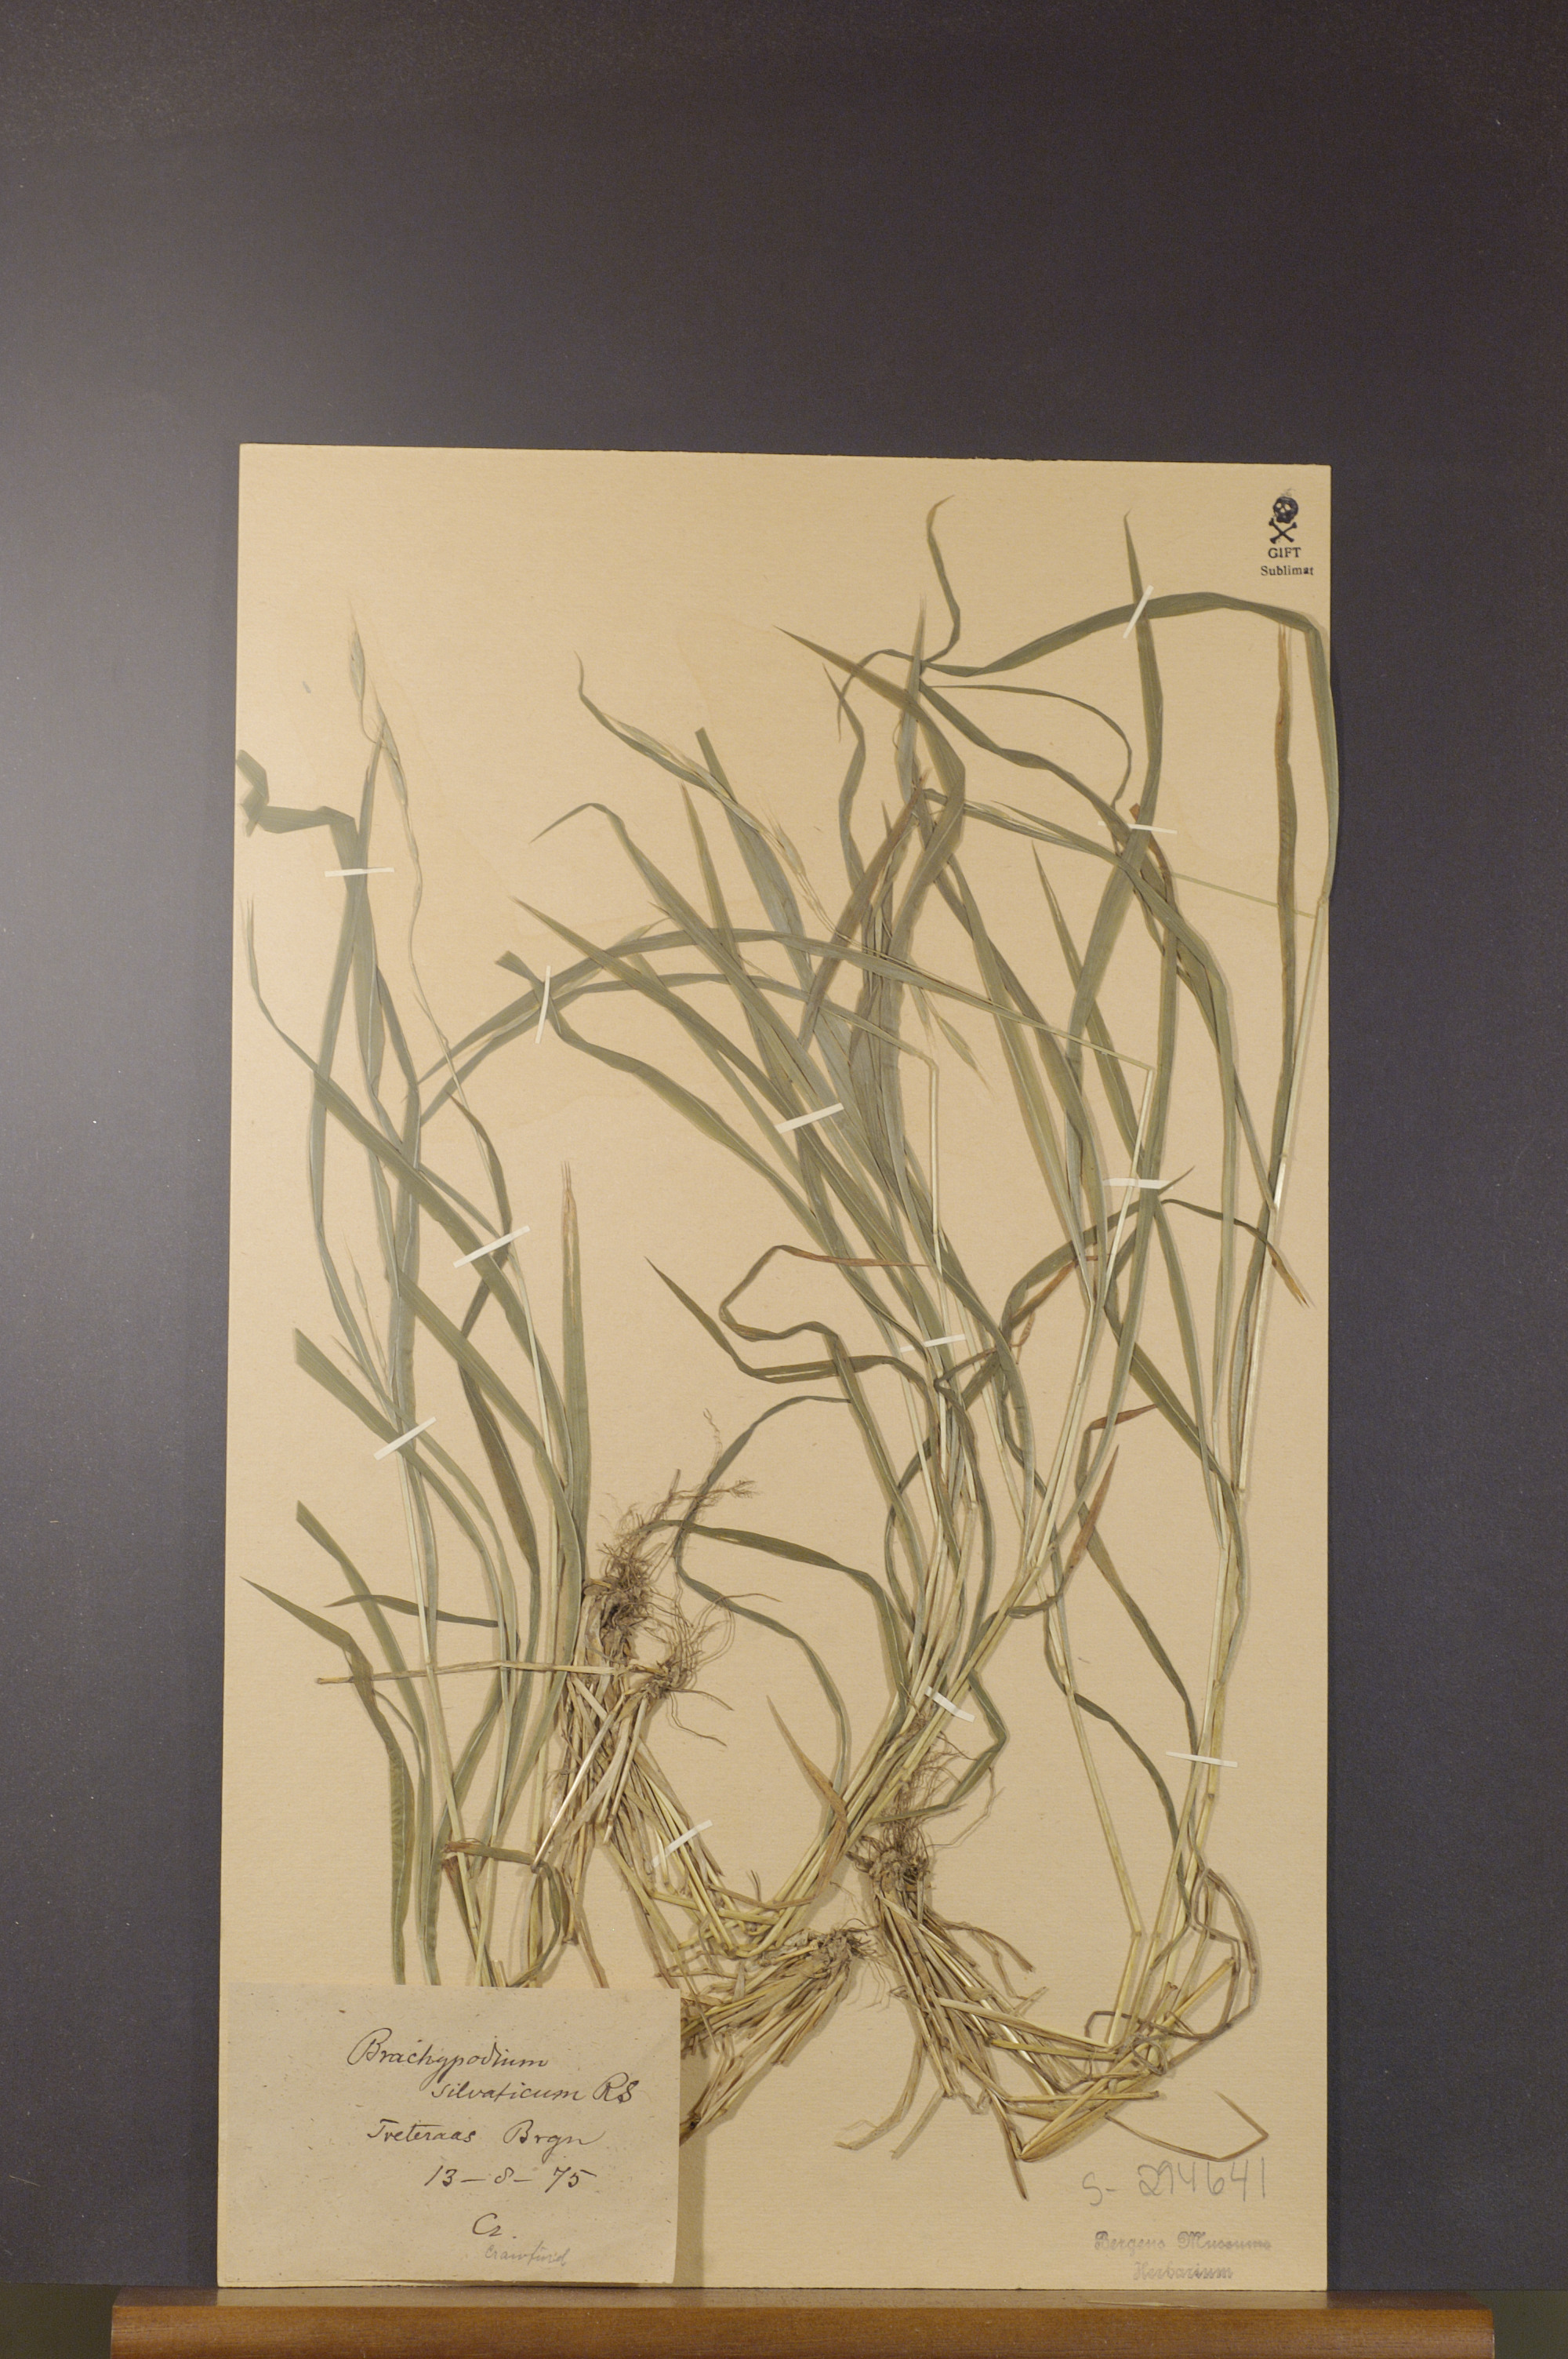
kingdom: Plantae
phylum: Tracheophyta
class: Liliopsida
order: Poales
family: Poaceae
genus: Brachypodium
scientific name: Brachypodium sylvaticum
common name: False-brome
